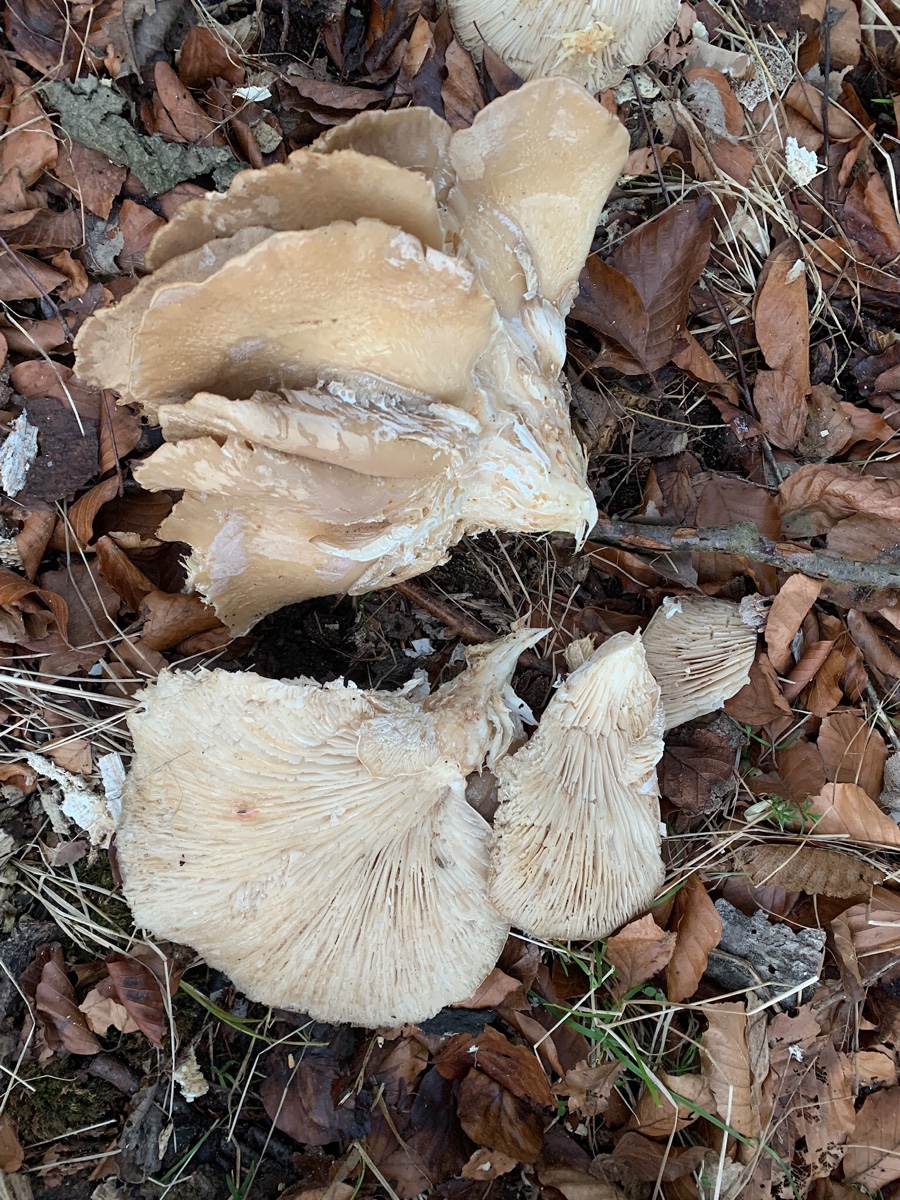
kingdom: Fungi
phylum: Basidiomycota
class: Agaricomycetes
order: Agaricales
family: Pleurotaceae
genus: Pleurotus
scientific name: Pleurotus ostreatus
